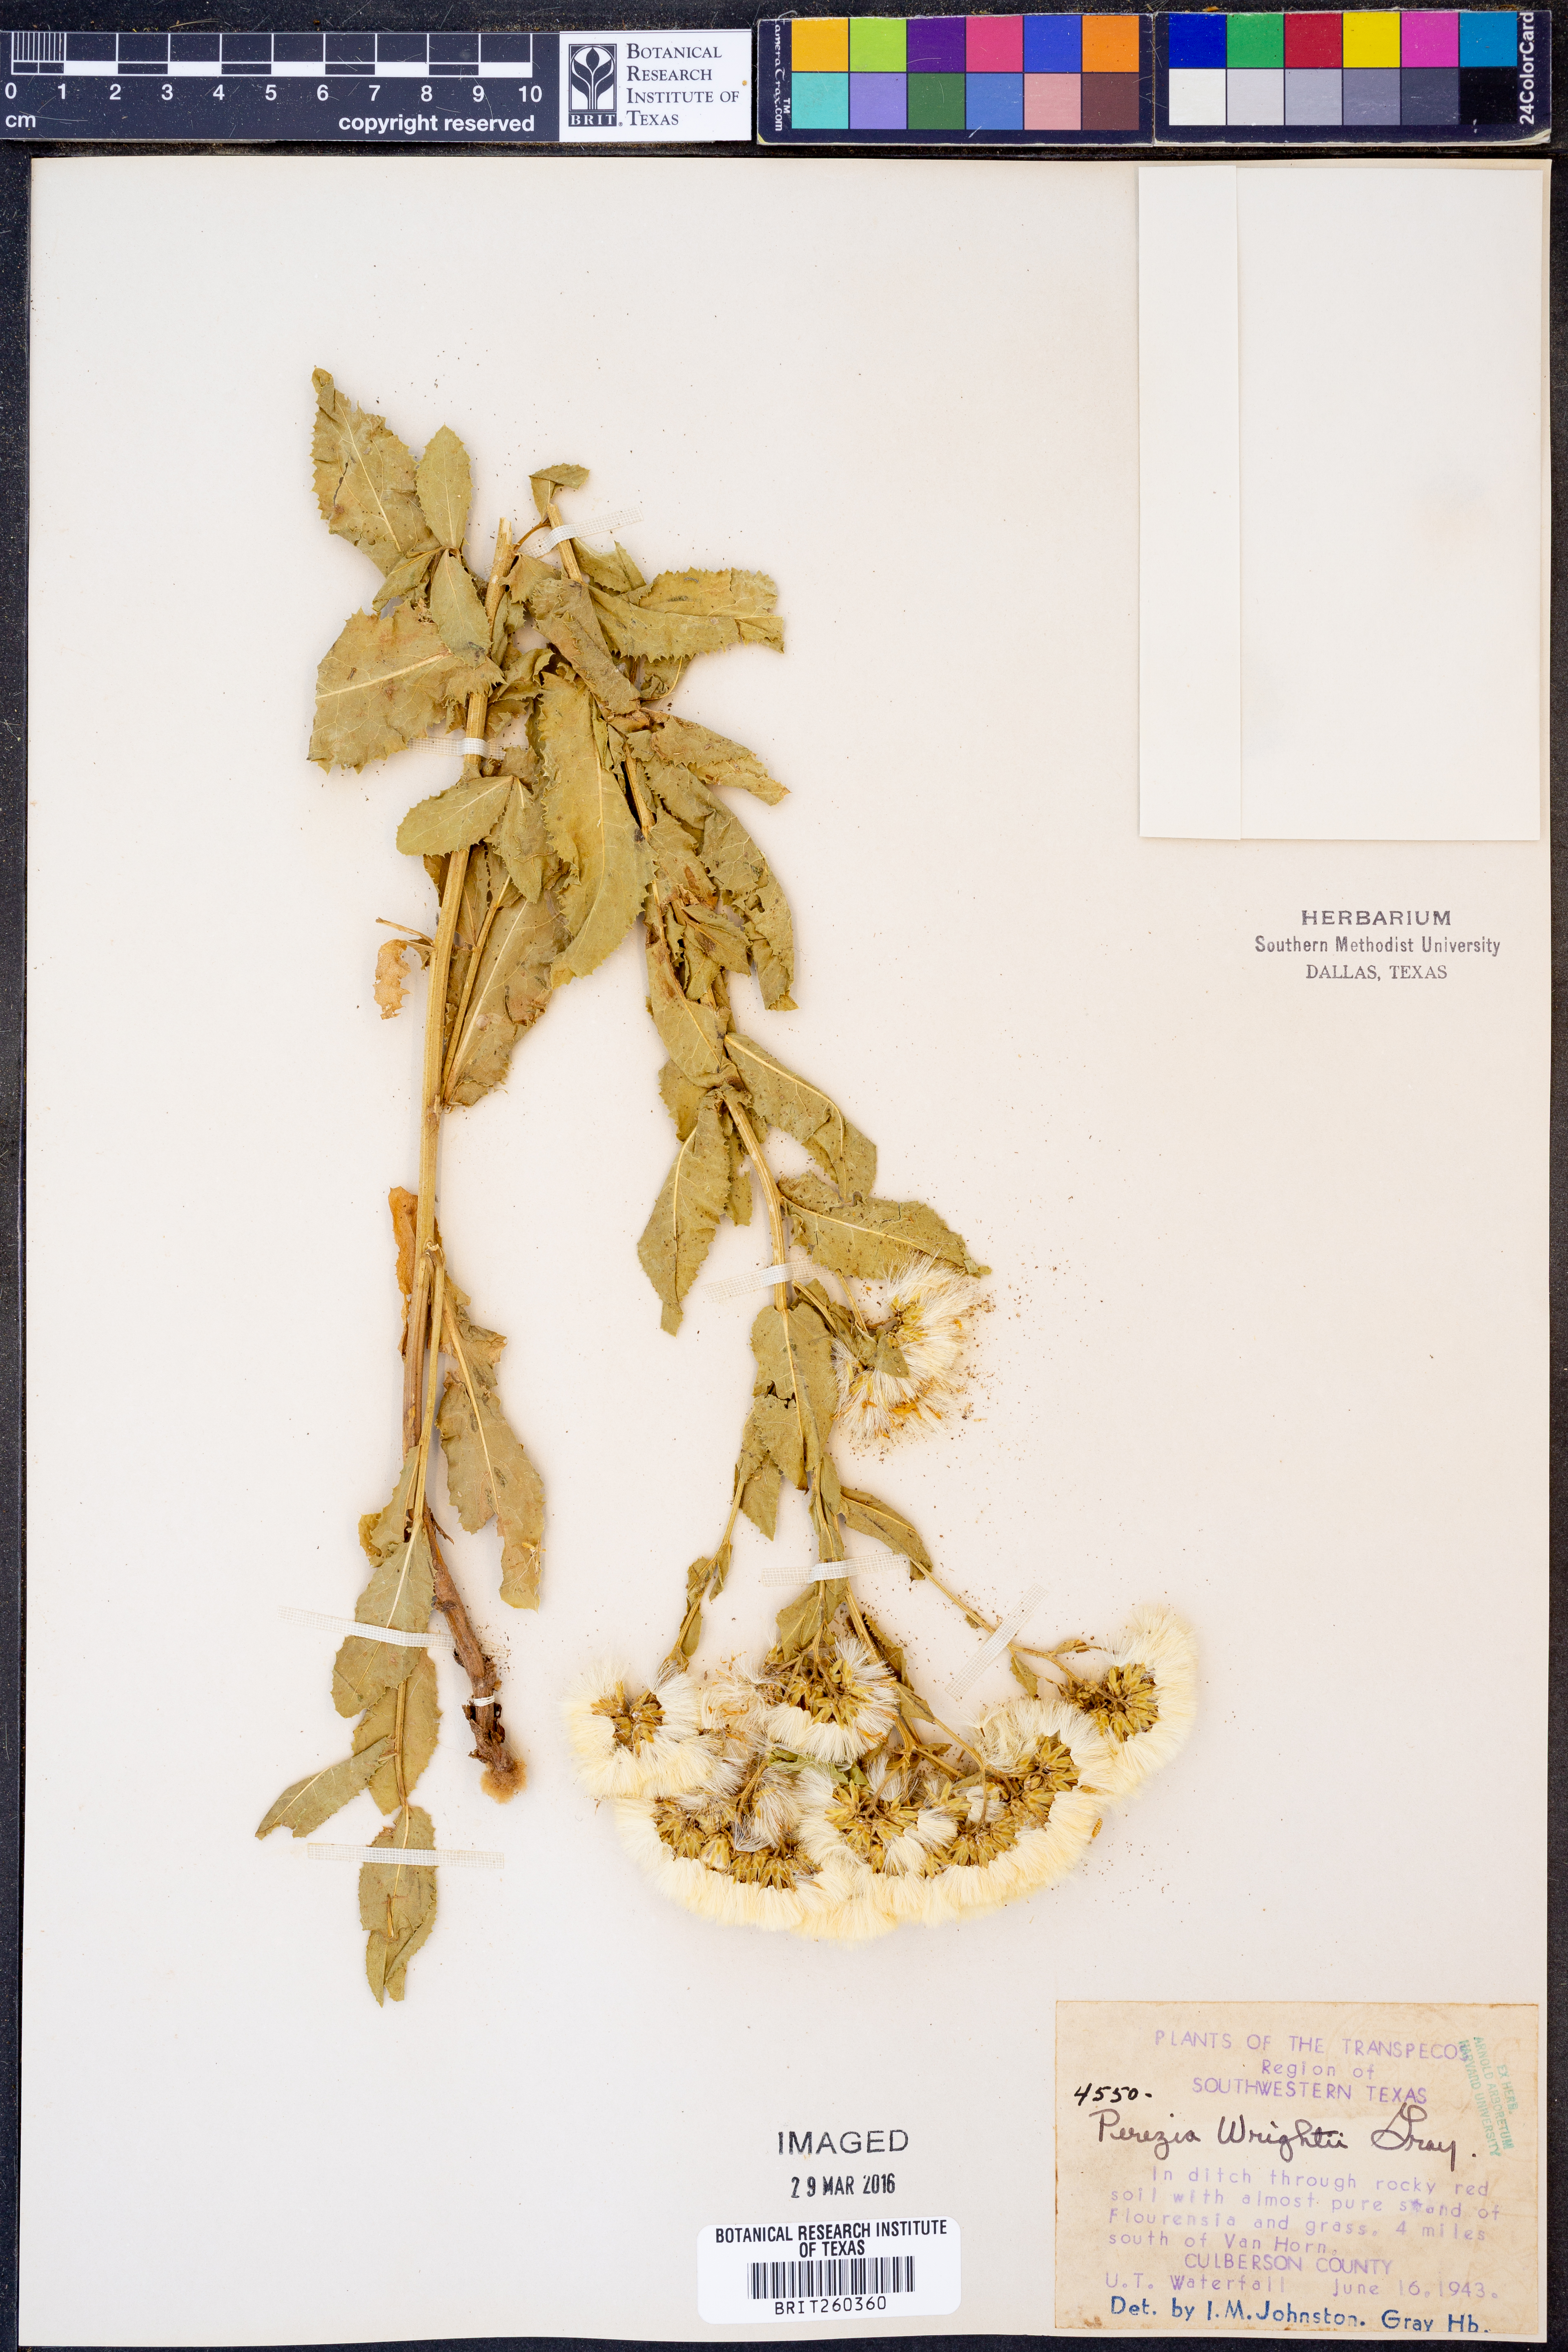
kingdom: Plantae
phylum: Tracheophyta
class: Magnoliopsida
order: Asterales
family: Asteraceae
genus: Acourtia
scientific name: Acourtia wrightii
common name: Brownfoot
